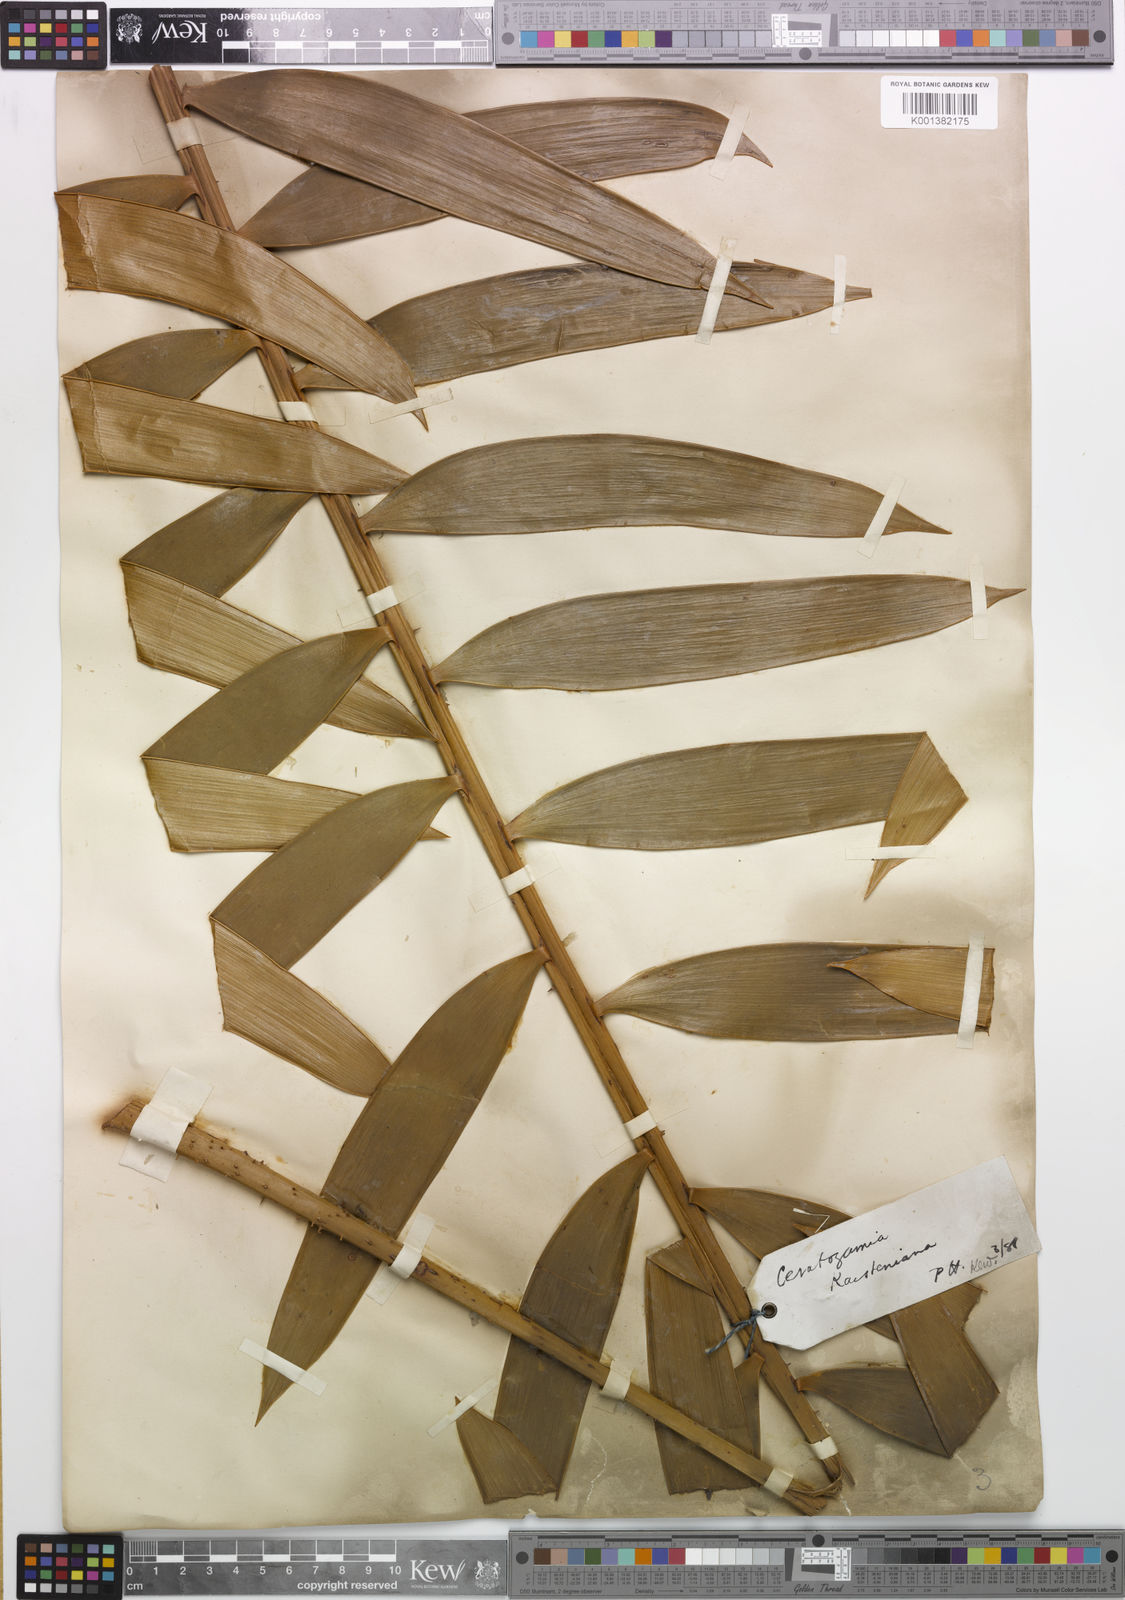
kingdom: Plantae
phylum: Tracheophyta
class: Cycadopsida
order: Cycadales
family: Zamiaceae
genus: Ceratozamia
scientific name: Ceratozamia latifolia
